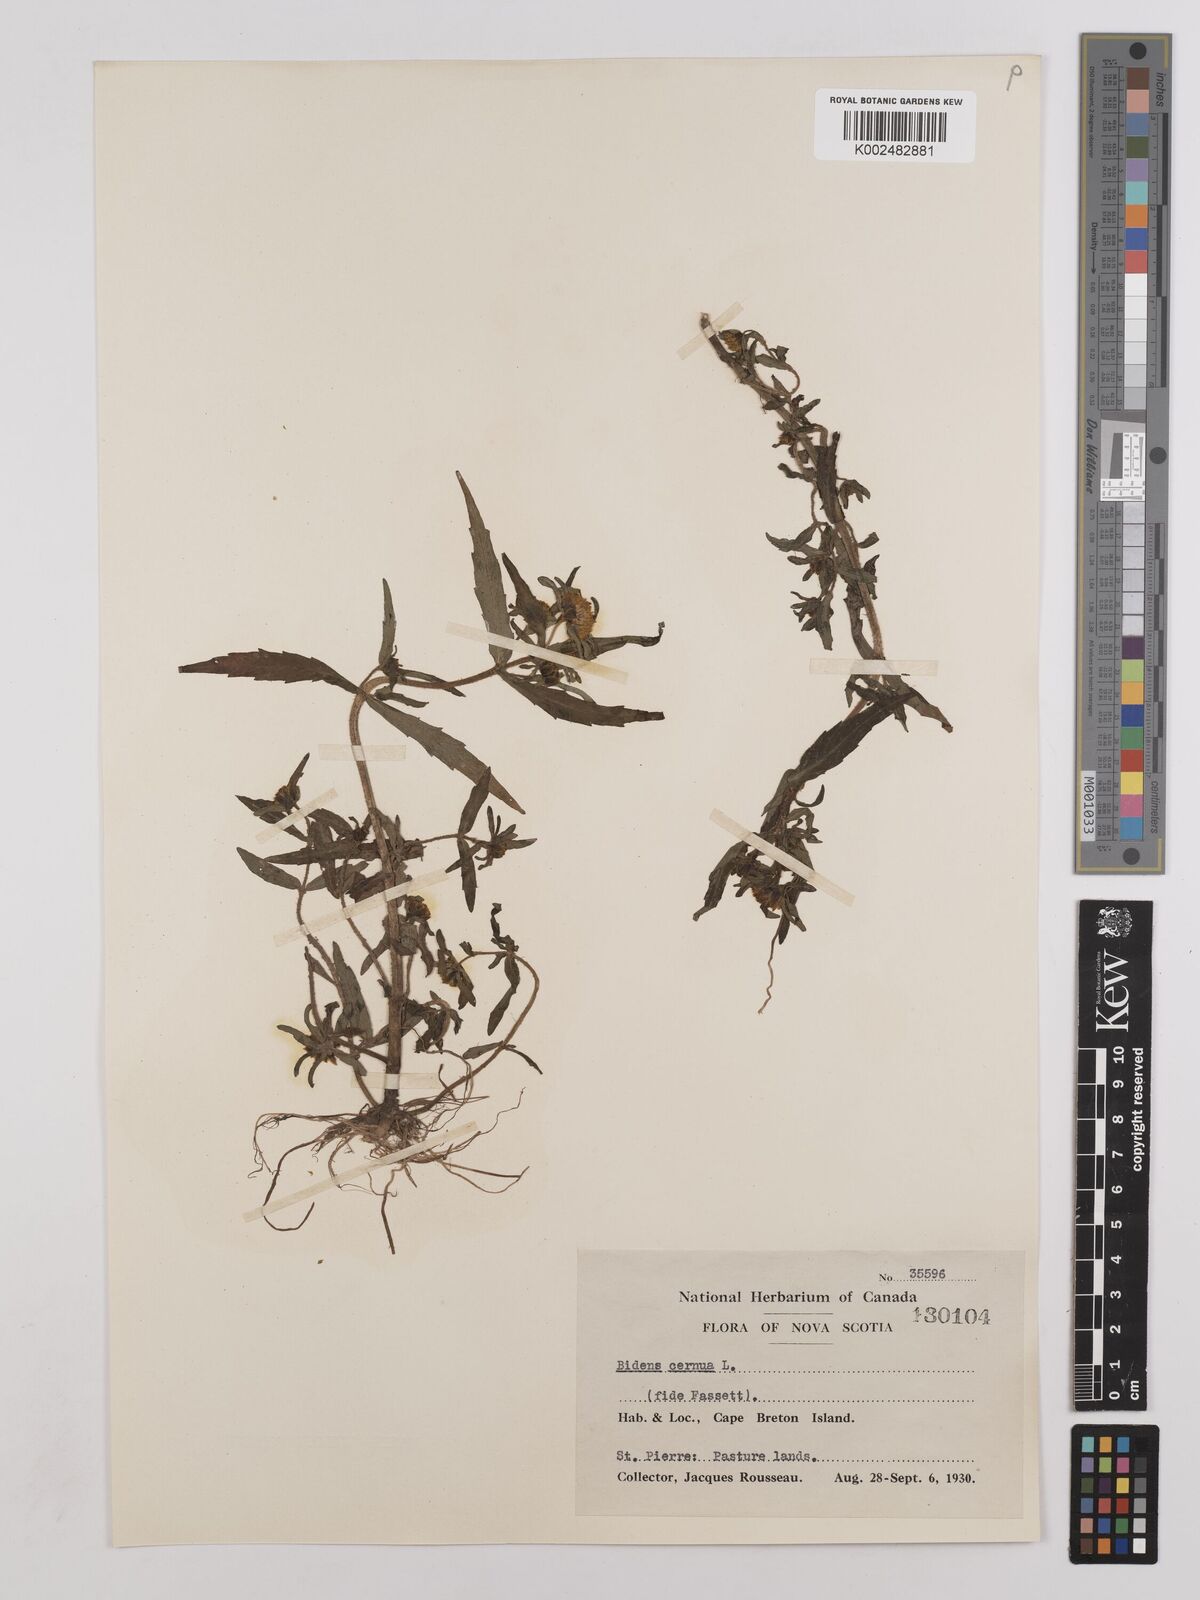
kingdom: Plantae
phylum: Tracheophyta
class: Magnoliopsida
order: Asterales
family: Asteraceae
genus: Bidens
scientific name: Bidens
